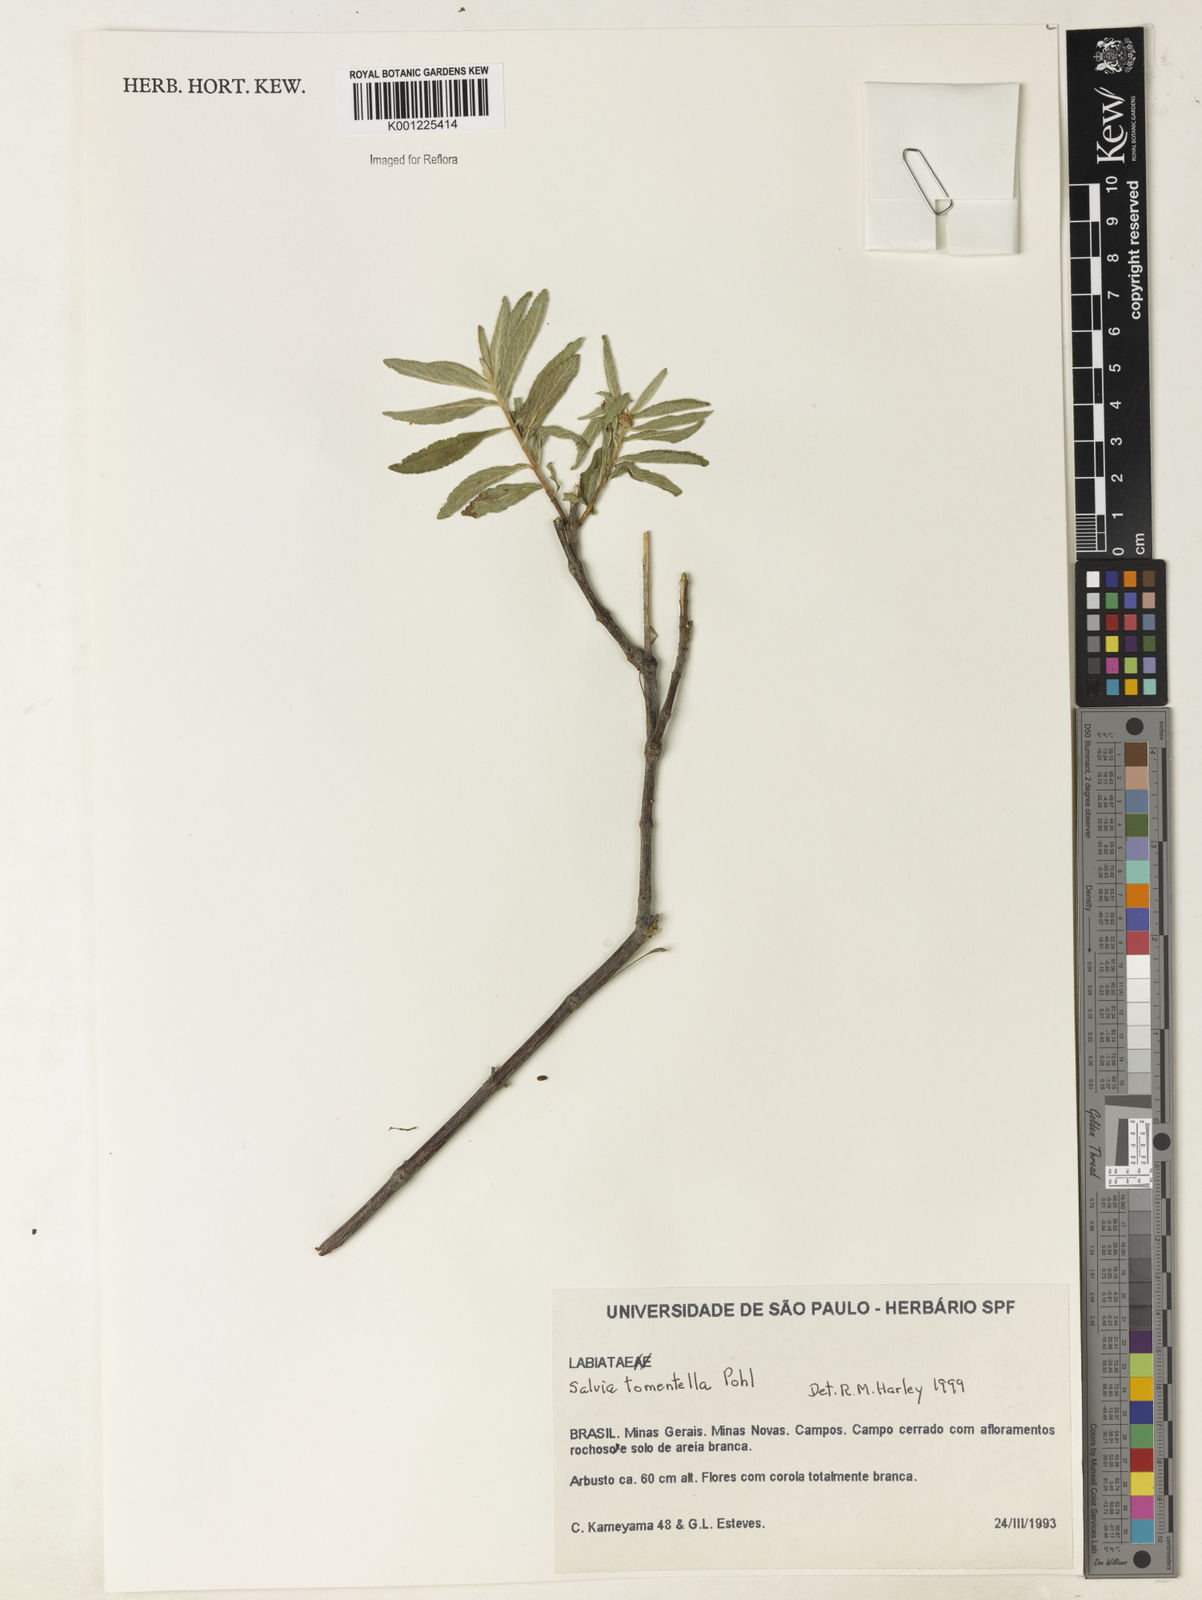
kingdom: Plantae
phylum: Tracheophyta
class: Magnoliopsida
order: Lamiales
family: Lamiaceae
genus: Salvia
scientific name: Salvia tomentella
